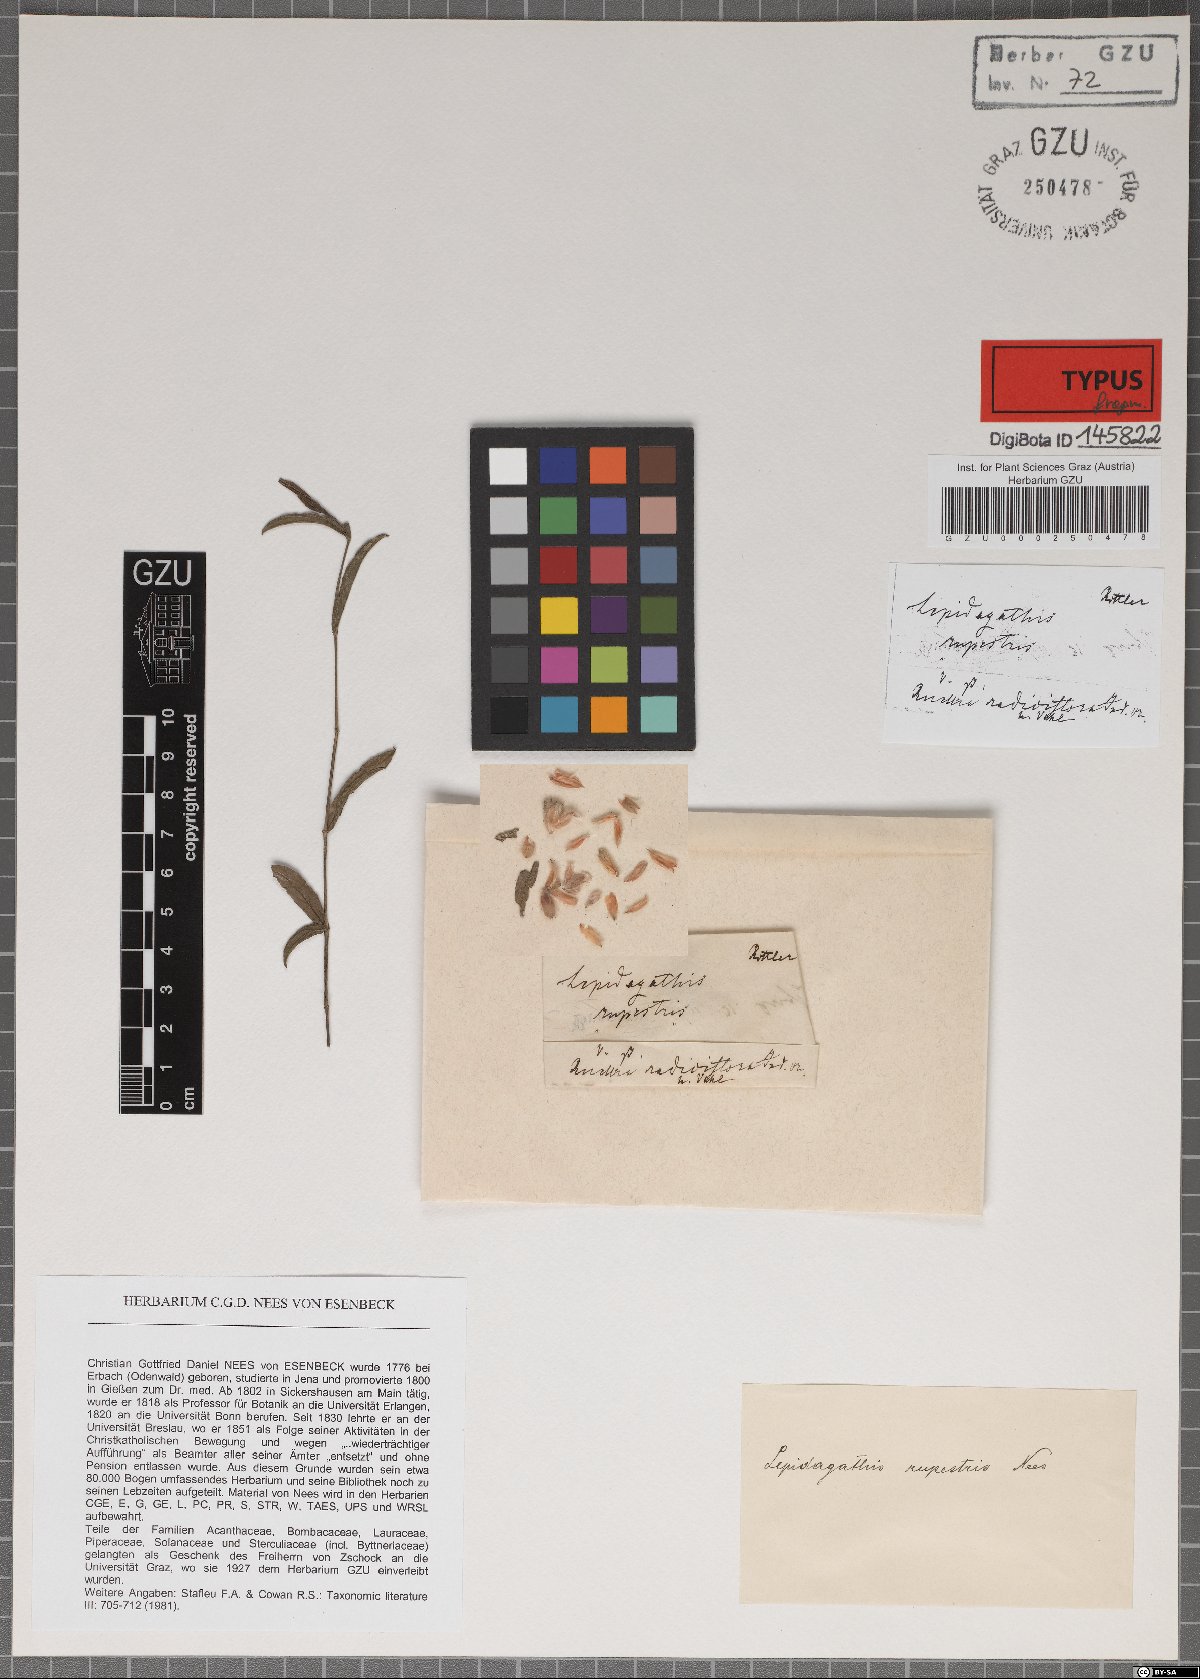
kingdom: Plantae
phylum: Tracheophyta
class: Magnoliopsida
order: Lamiales
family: Acanthaceae
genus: Lepidagathis
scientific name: Lepidagathis cristata
